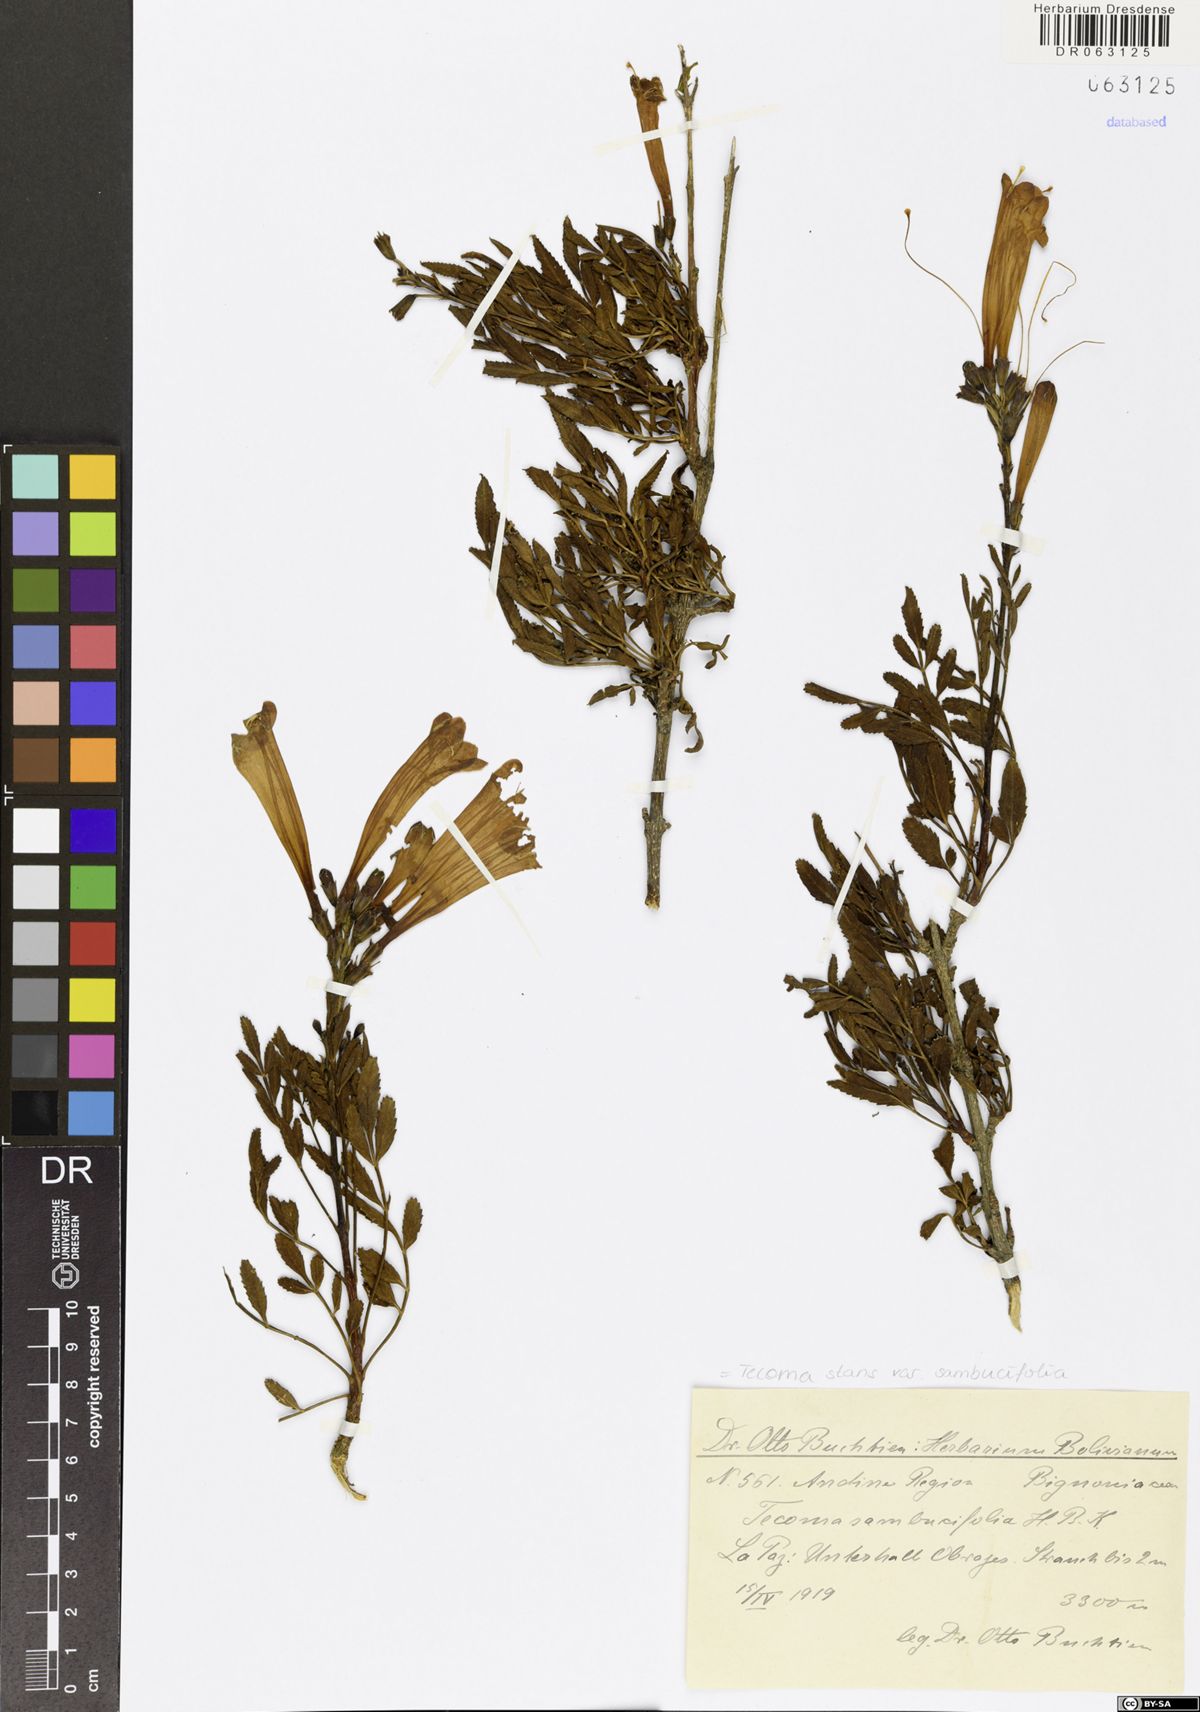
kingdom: Plantae
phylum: Tracheophyta
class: Magnoliopsida
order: Lamiales
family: Bignoniaceae
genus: Tecoma
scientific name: Tecoma stans
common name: Yellow trumpetbush
